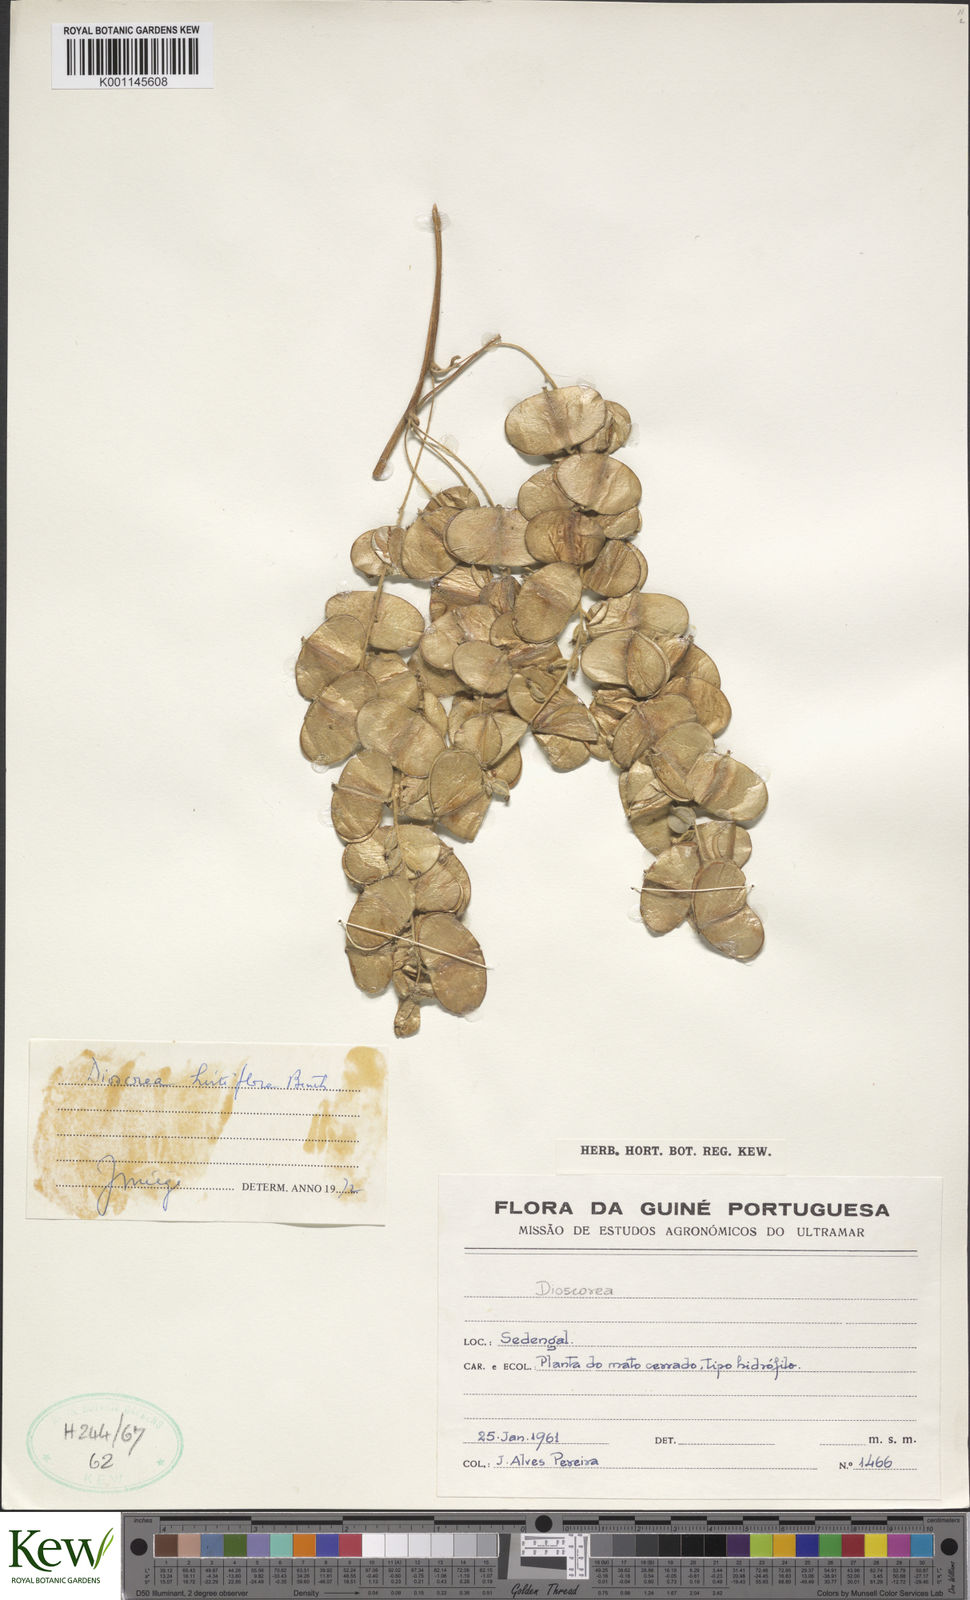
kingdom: Plantae
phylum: Tracheophyta
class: Liliopsida
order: Dioscoreales
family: Dioscoreaceae
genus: Dioscorea
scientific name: Dioscorea hirtiflora
